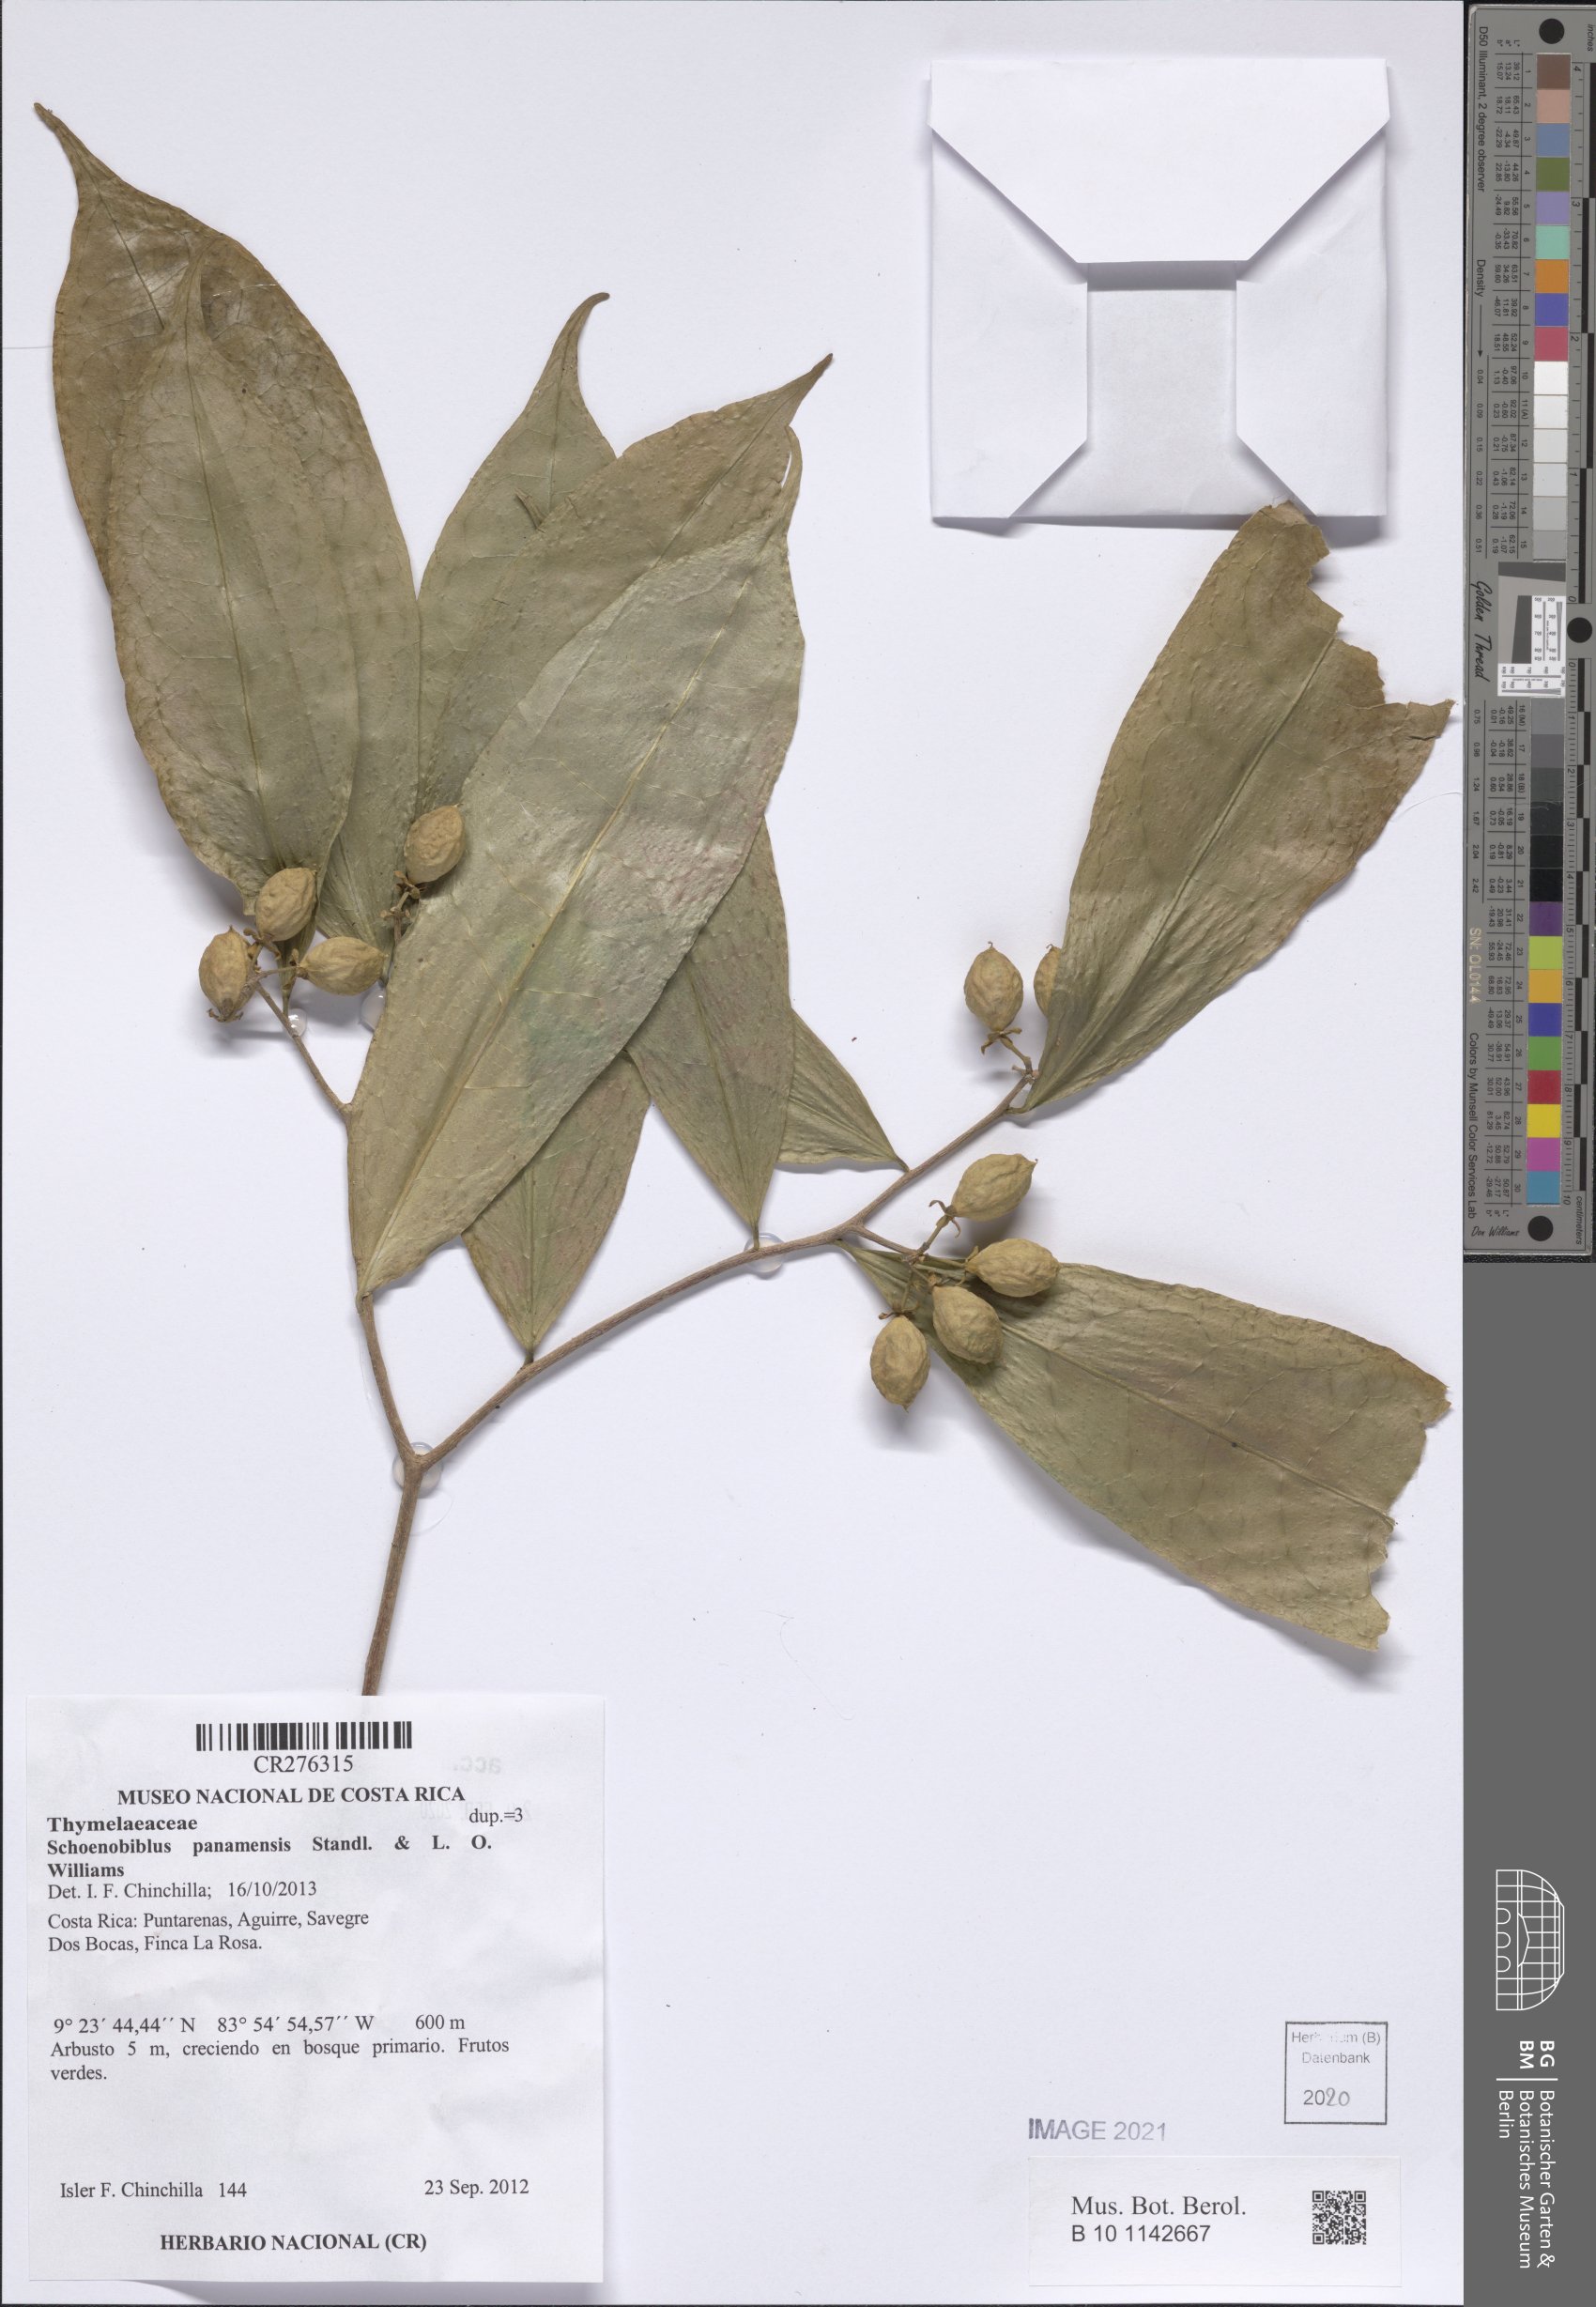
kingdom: Plantae
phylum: Tracheophyta
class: Magnoliopsida
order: Malvales
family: Thymelaeaceae
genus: Schoenobiblus
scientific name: Schoenobiblus panamensis
